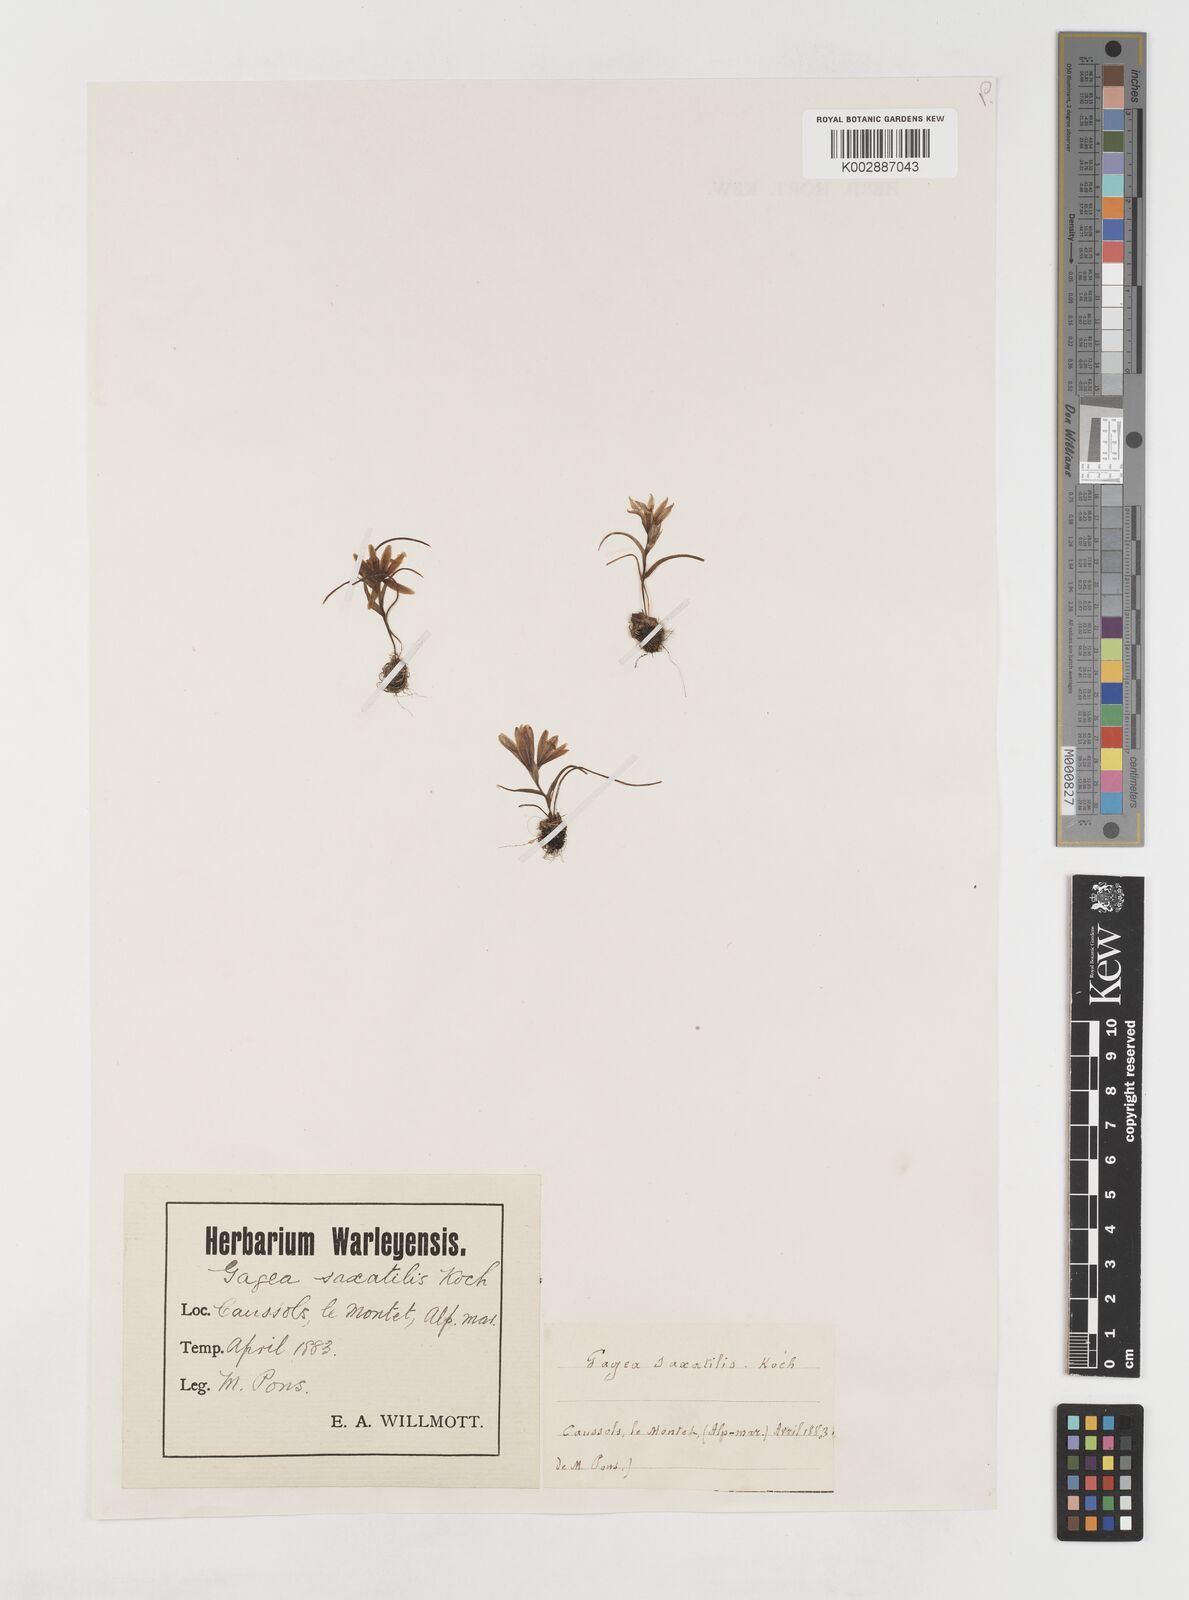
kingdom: Plantae
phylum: Tracheophyta
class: Liliopsida
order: Liliales
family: Liliaceae
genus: Gagea
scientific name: Gagea bohemica
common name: Early star-of-bethlehem
